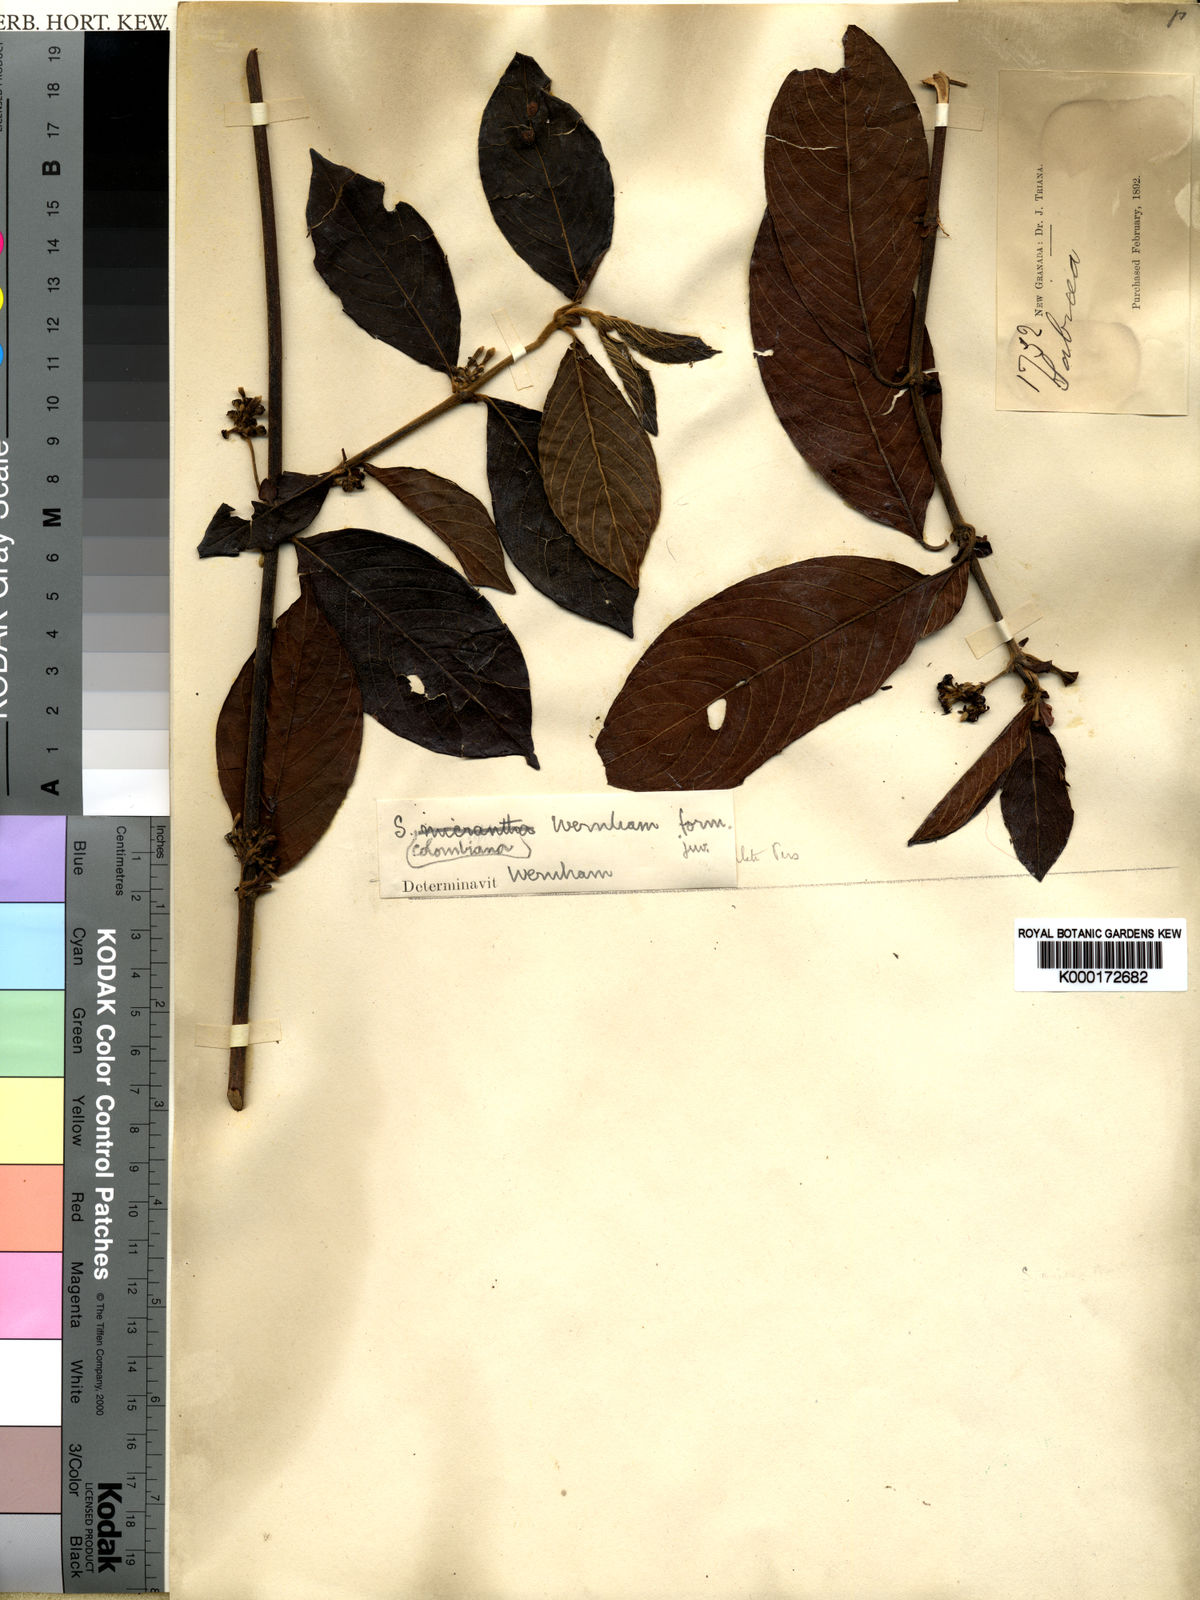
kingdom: Plantae
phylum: Tracheophyta
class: Magnoliopsida
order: Gentianales
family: Rubiaceae
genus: Sabicea
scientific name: Sabicea panamensis
